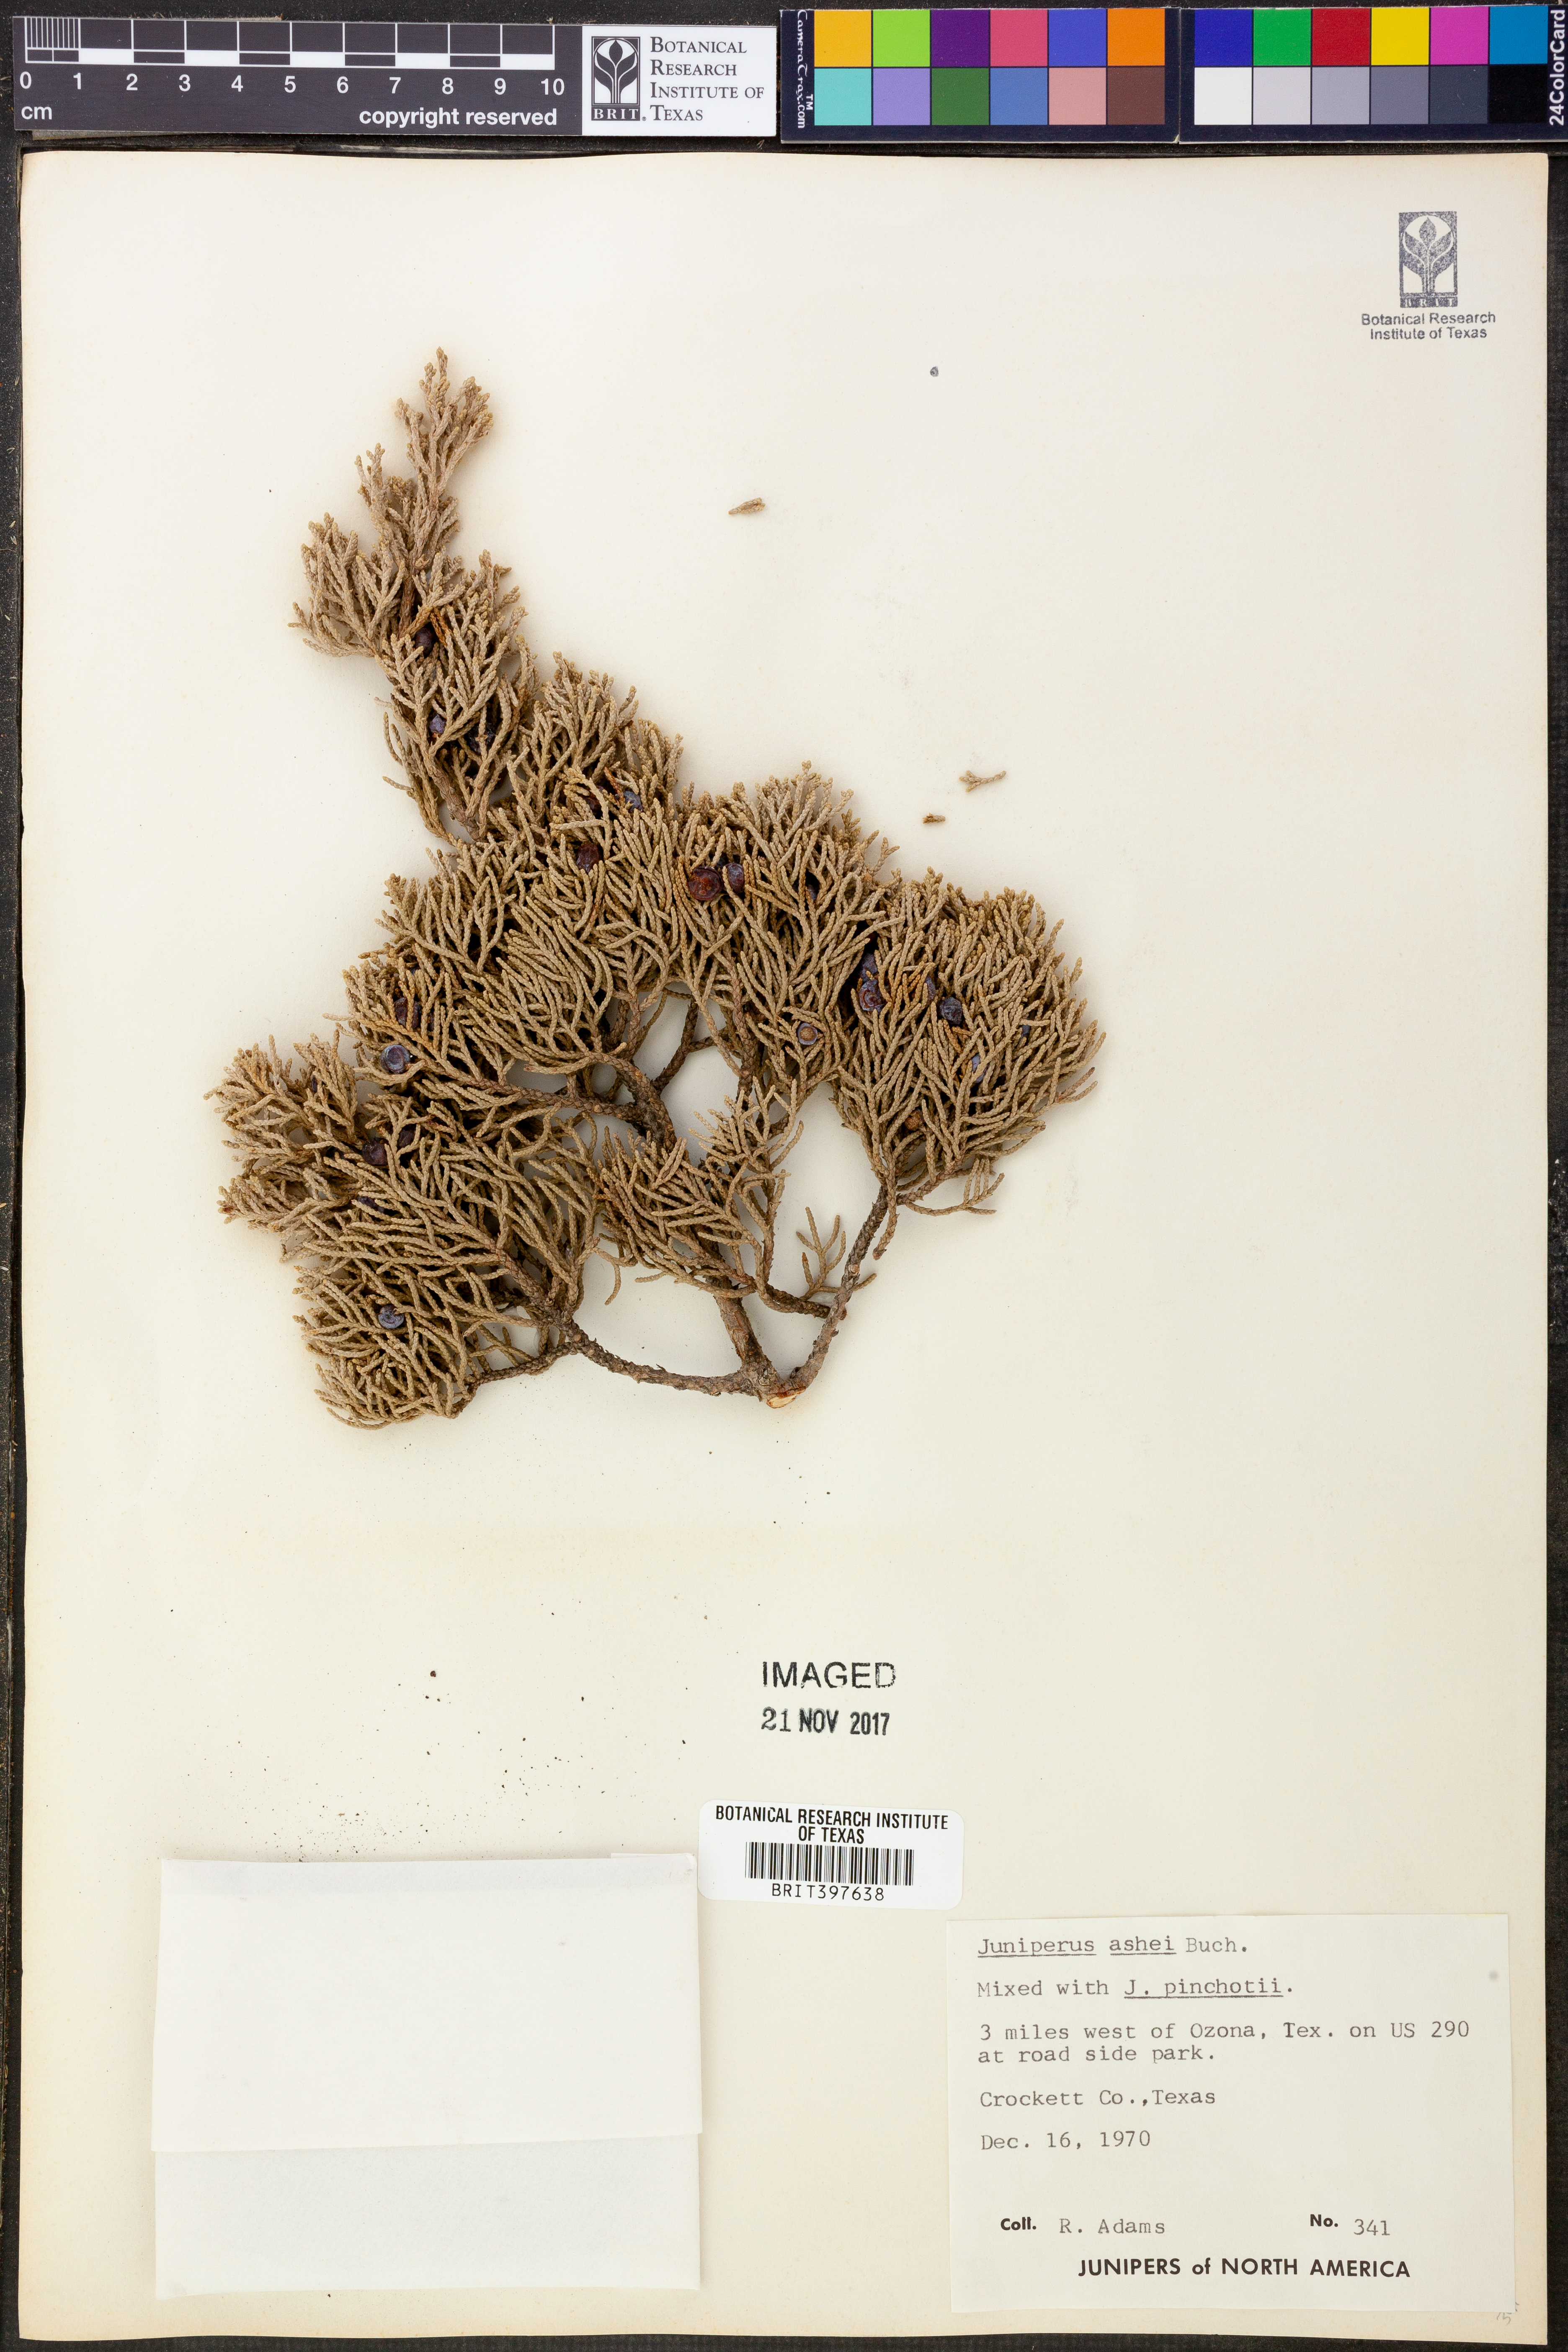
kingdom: Plantae
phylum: Tracheophyta
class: Pinopsida
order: Pinales
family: Cupressaceae
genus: Juniperus
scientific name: Juniperus ashei
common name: Mexican juniper
